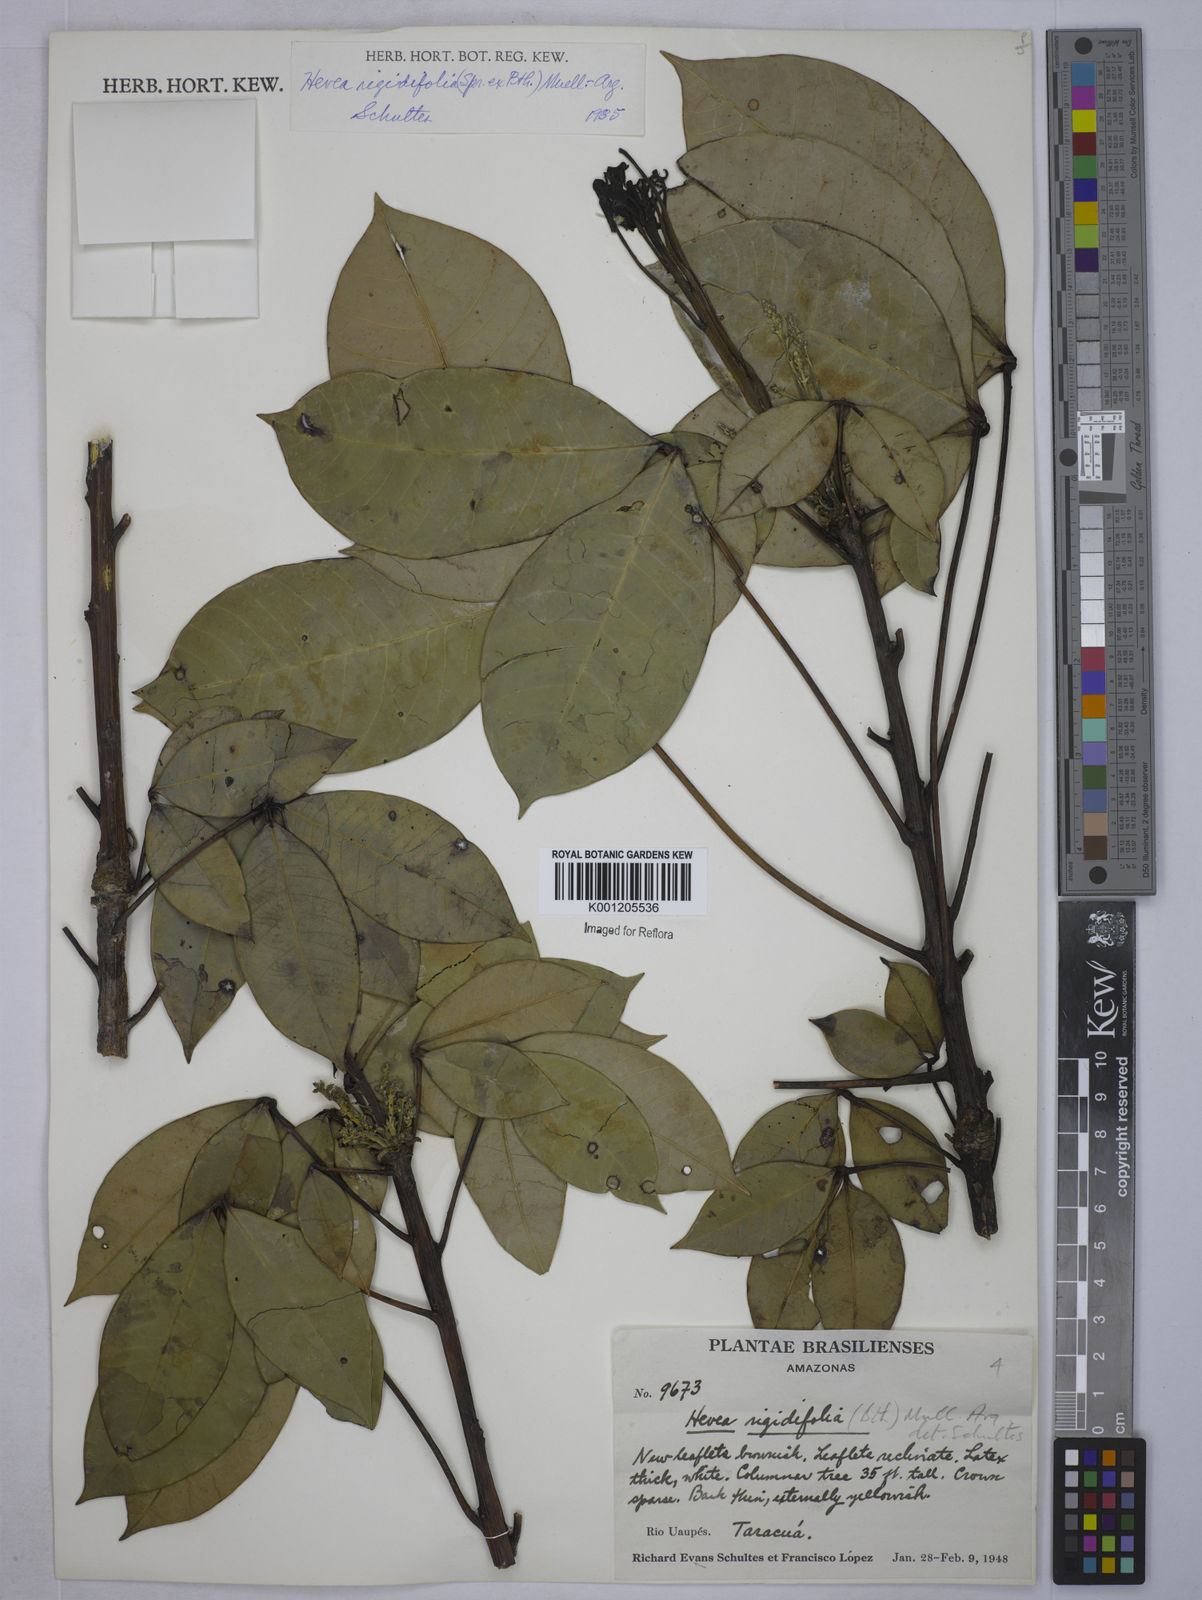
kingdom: Plantae
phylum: Tracheophyta
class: Magnoliopsida
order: Malpighiales
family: Euphorbiaceae
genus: Hevea
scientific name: Hevea
